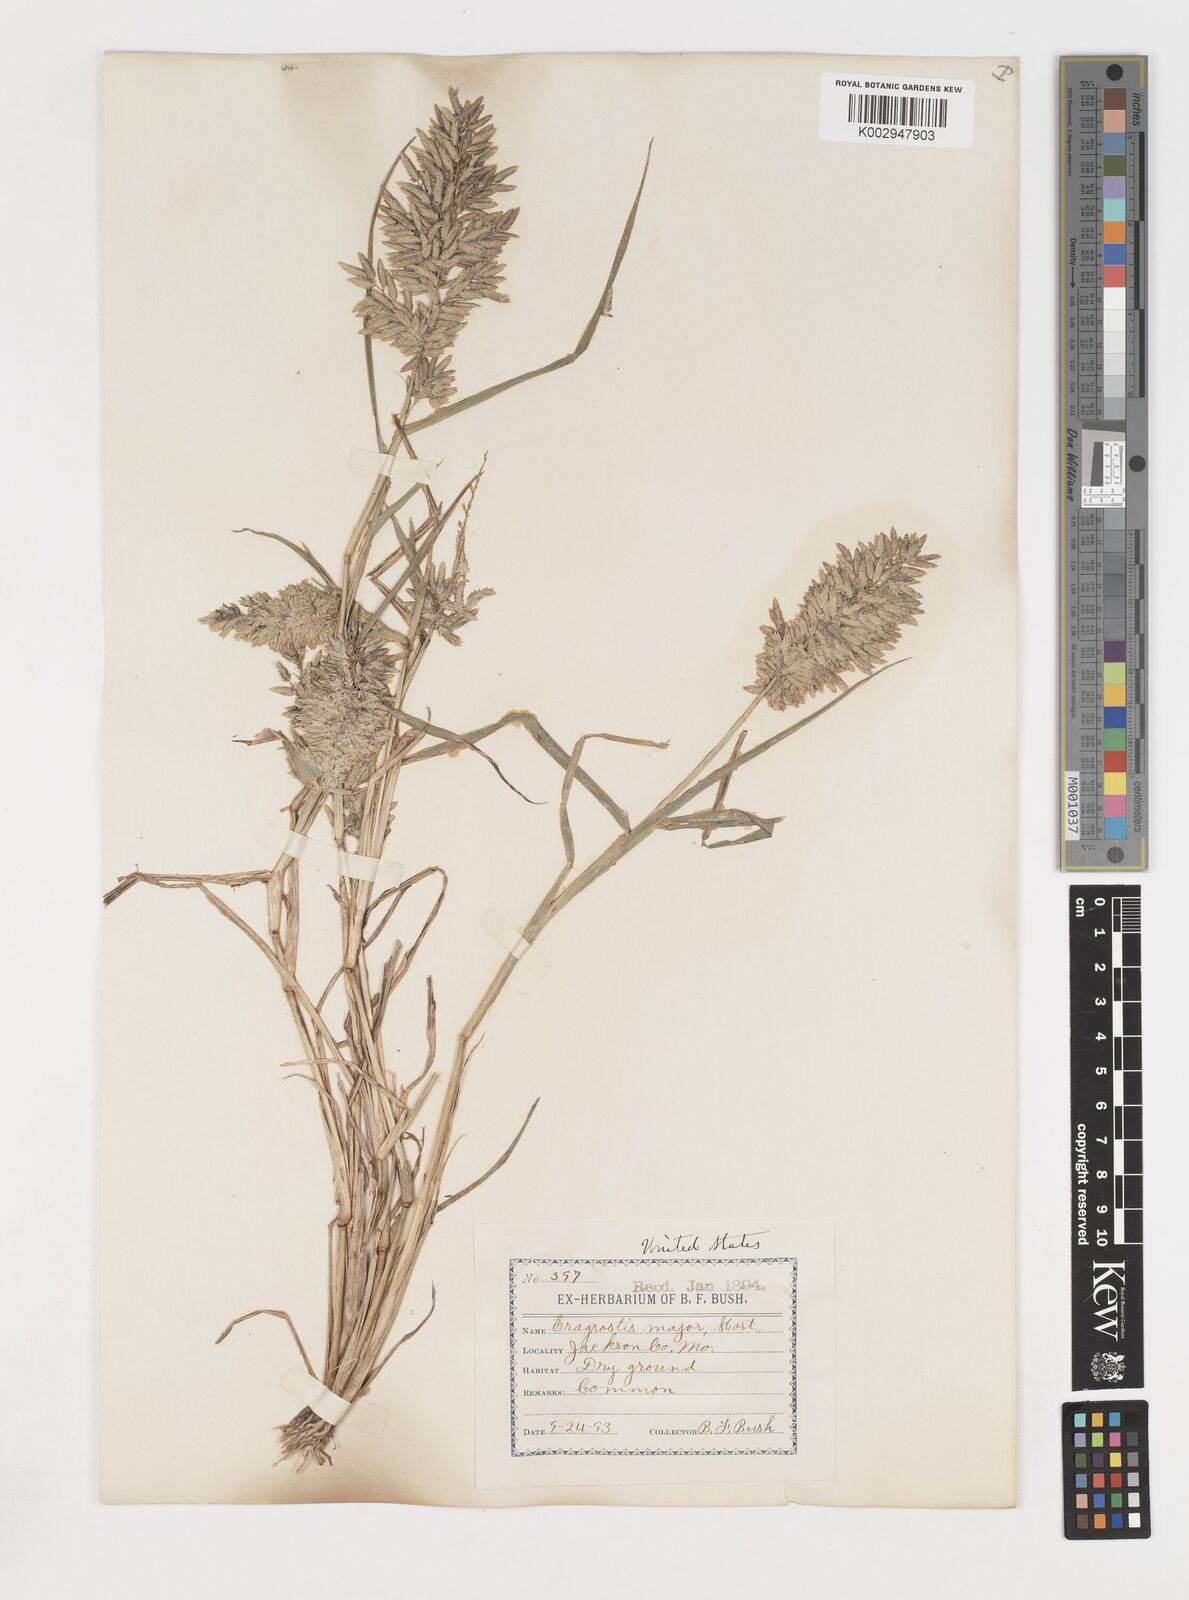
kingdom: Plantae
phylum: Tracheophyta
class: Liliopsida
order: Poales
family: Poaceae
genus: Eragrostis
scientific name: Eragrostis
